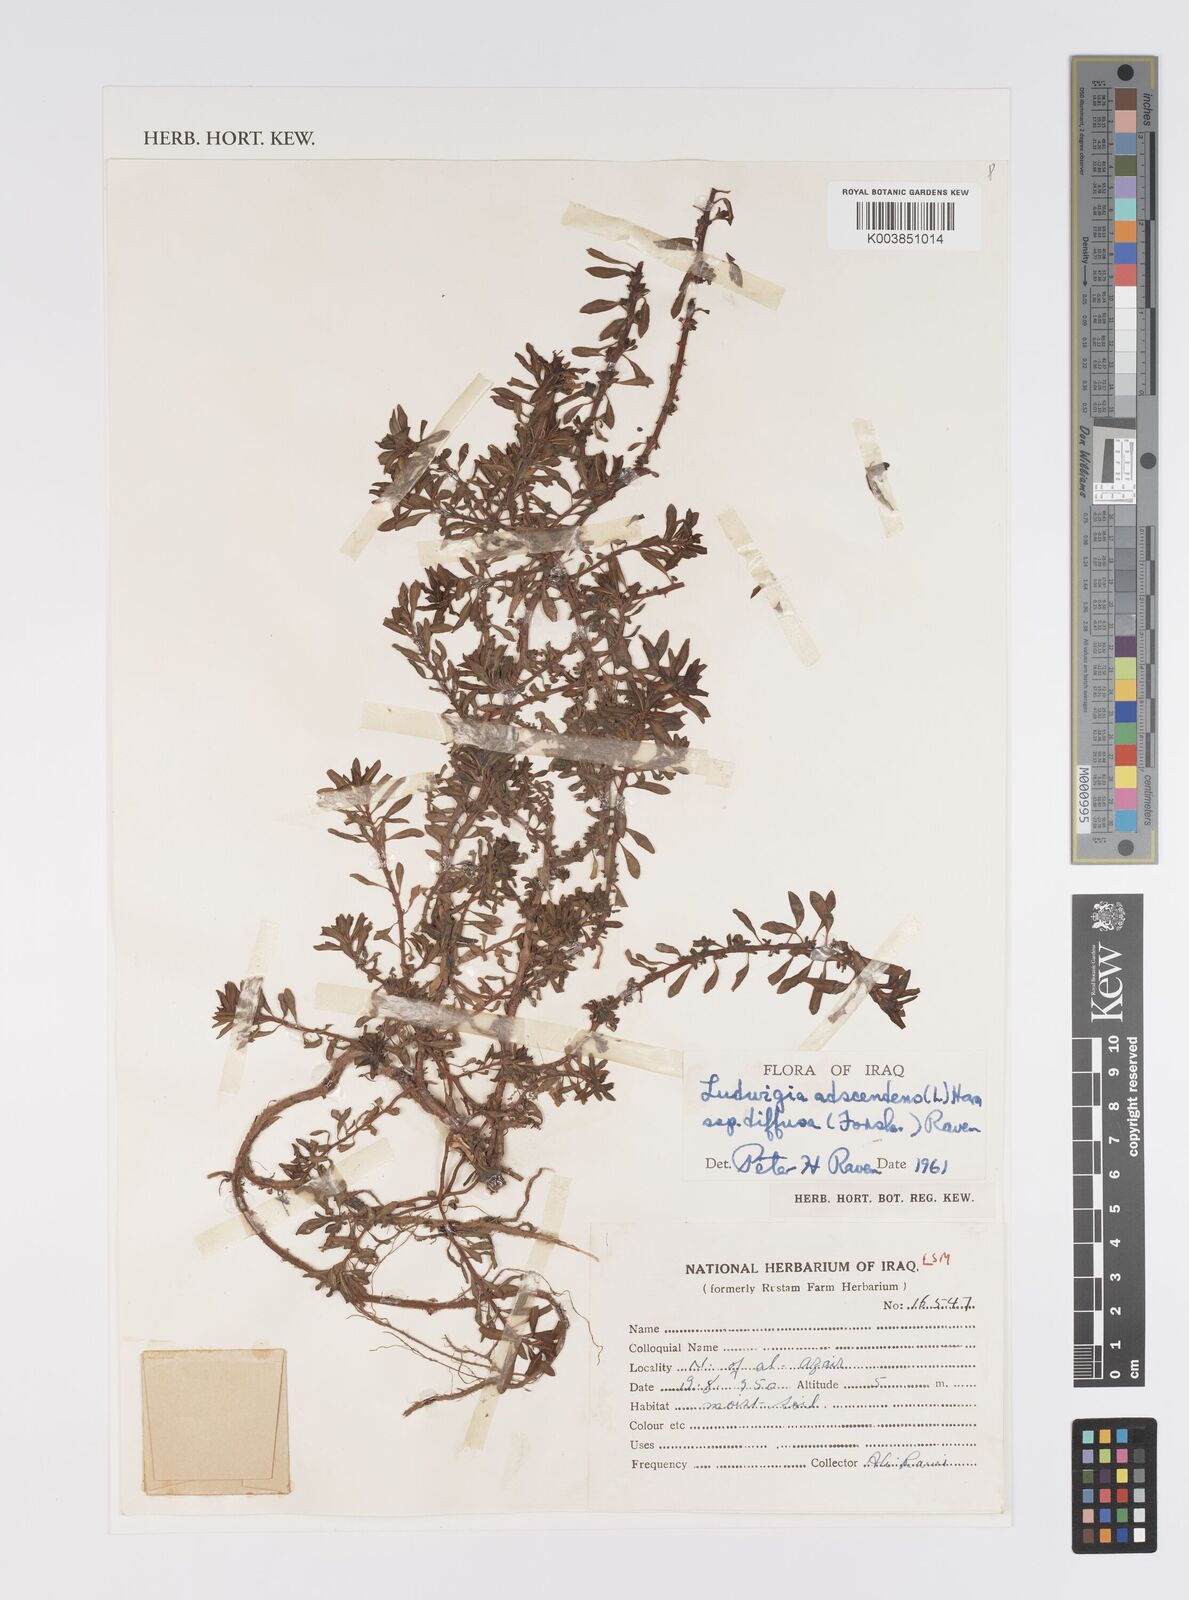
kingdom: Plantae
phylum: Tracheophyta
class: Magnoliopsida
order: Myrtales
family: Onagraceae
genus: Ludwigia
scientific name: Ludwigia adscendens
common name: Creeping water primrose
